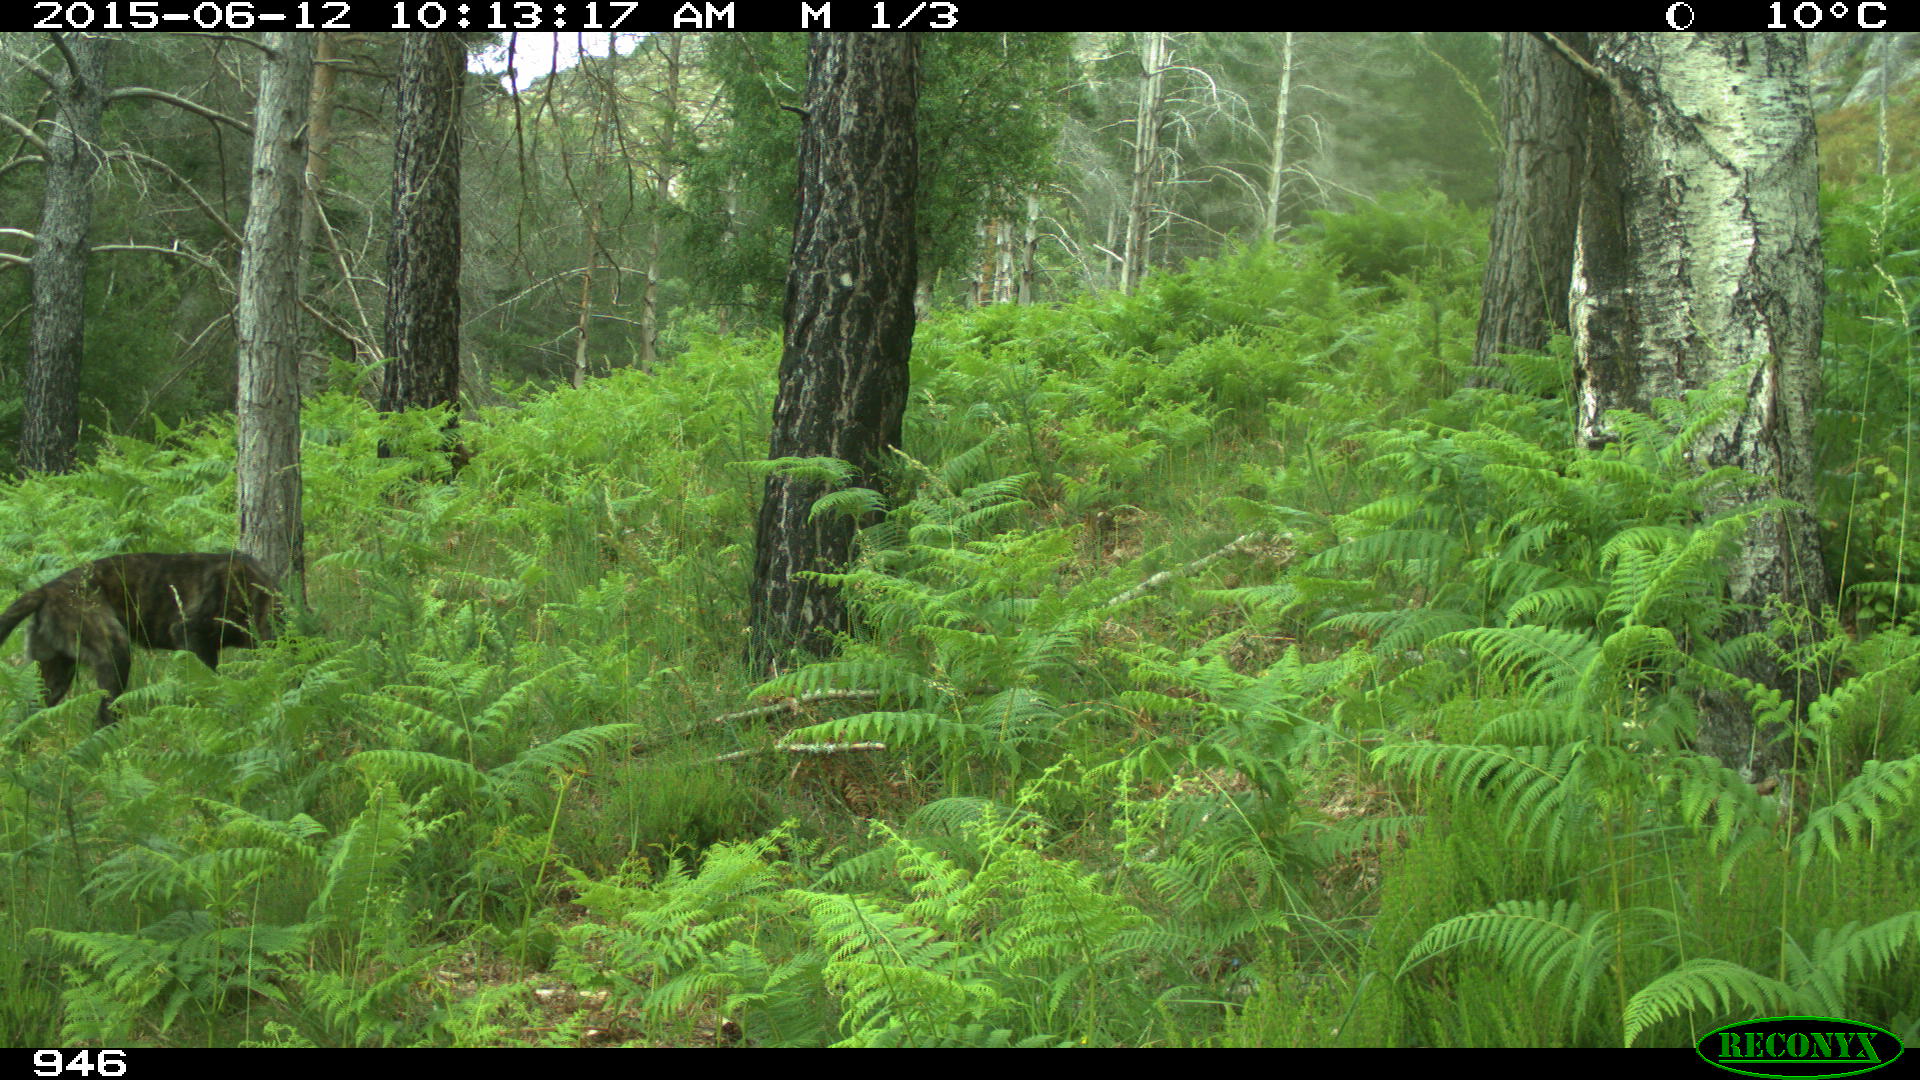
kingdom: Animalia
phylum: Chordata
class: Mammalia
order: Carnivora
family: Canidae
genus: Canis
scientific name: Canis lupus
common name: Gray wolf
